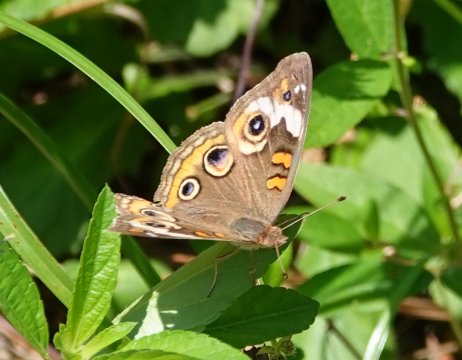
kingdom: Animalia
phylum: Arthropoda
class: Insecta
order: Lepidoptera
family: Nymphalidae
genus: Junonia
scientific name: Junonia coenia
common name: Common Buckeye
